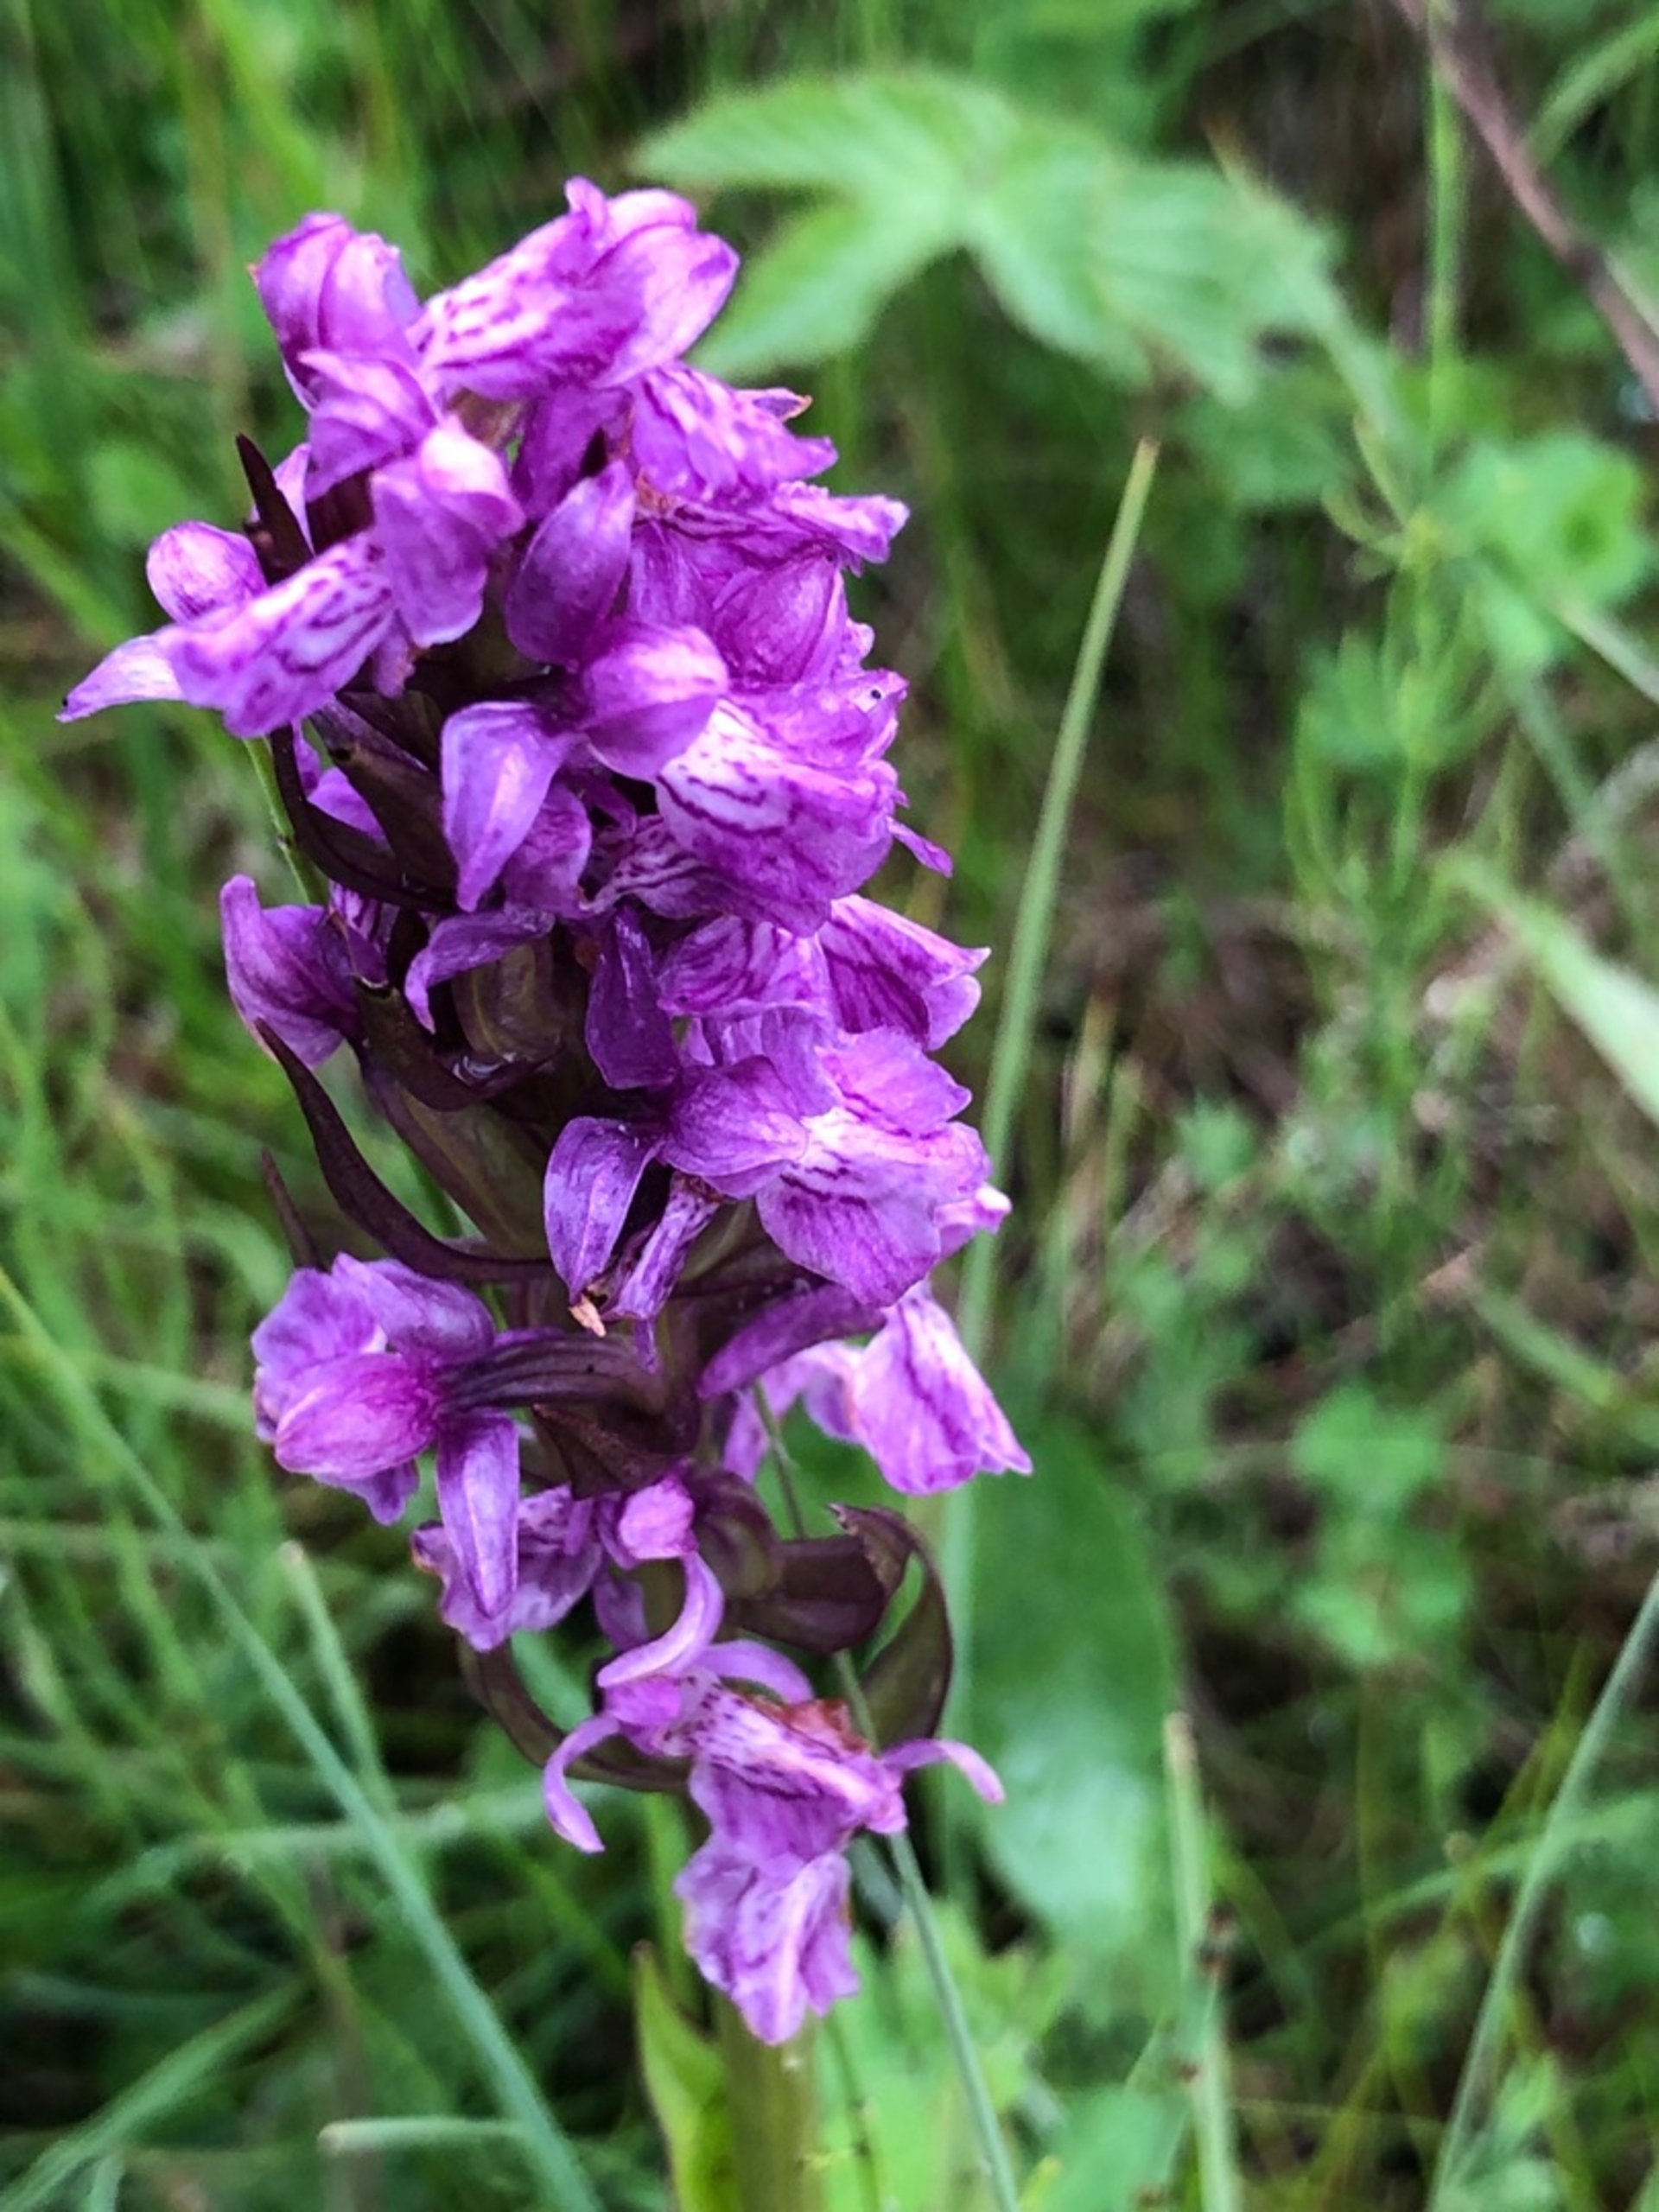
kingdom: Plantae
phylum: Tracheophyta
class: Liliopsida
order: Asparagales
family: Orchidaceae
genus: Dactylorhiza
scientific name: Dactylorhiza majalis
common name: Maj-gøgeurt
